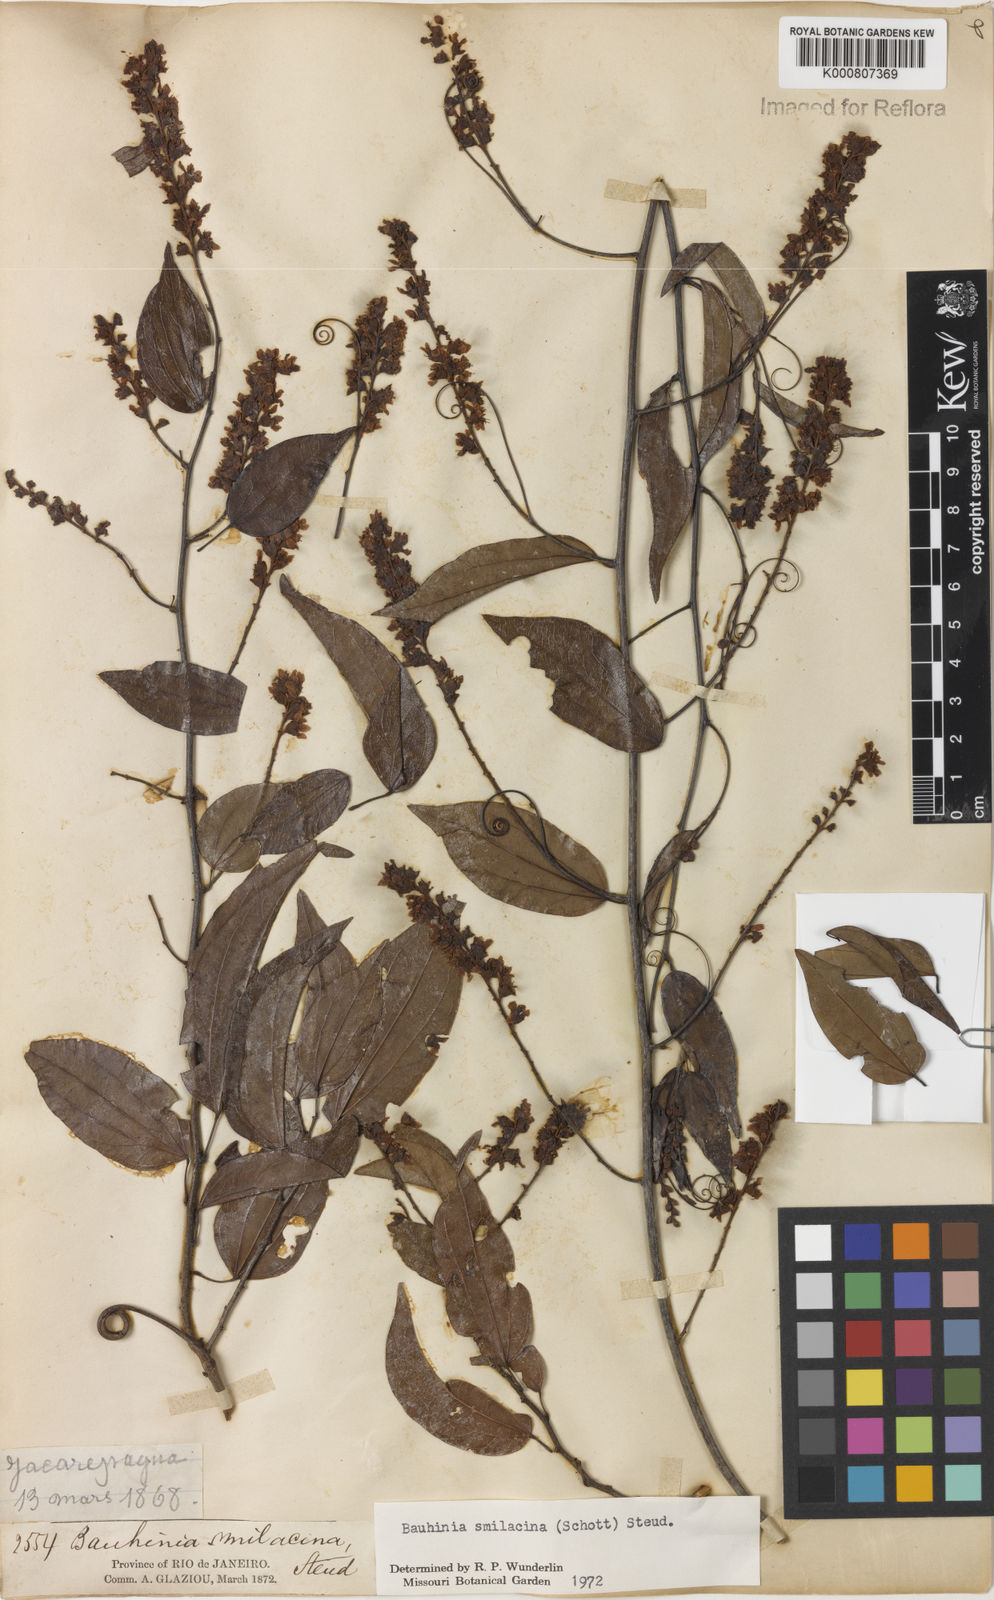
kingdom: Plantae
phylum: Tracheophyta
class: Magnoliopsida
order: Fabales
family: Fabaceae
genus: Schnella
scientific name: Schnella smilacina
